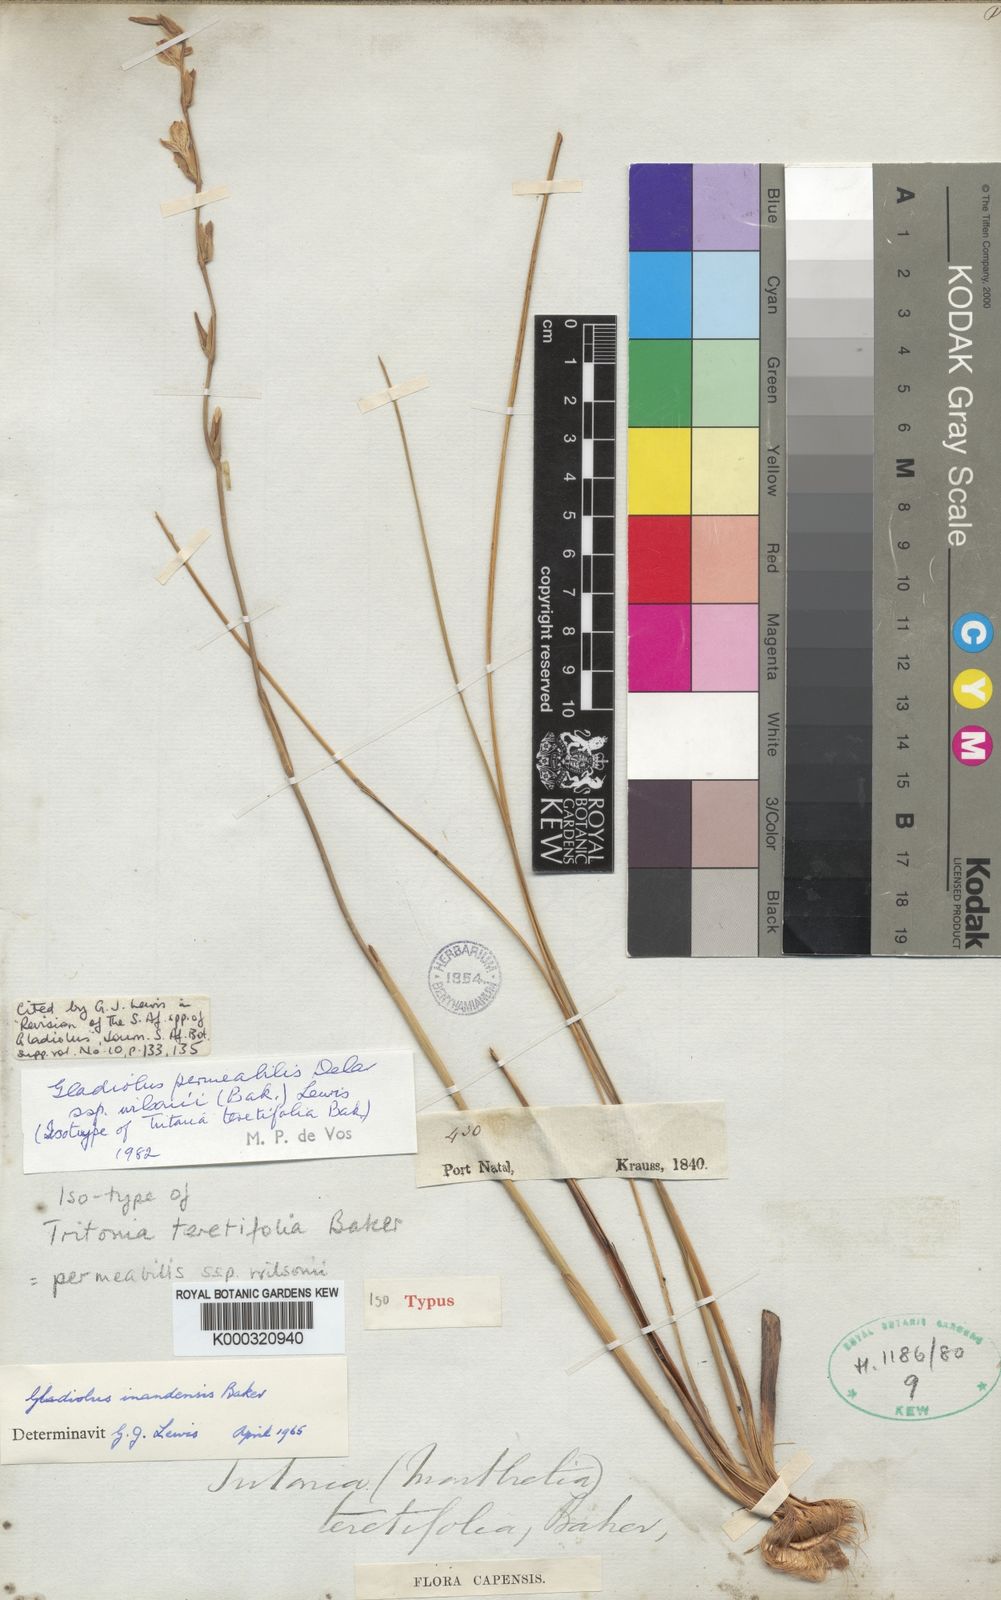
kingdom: Plantae
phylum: Tracheophyta
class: Liliopsida
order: Asparagales
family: Iridaceae
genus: Gladiolus
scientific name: Gladiolus inandensis
